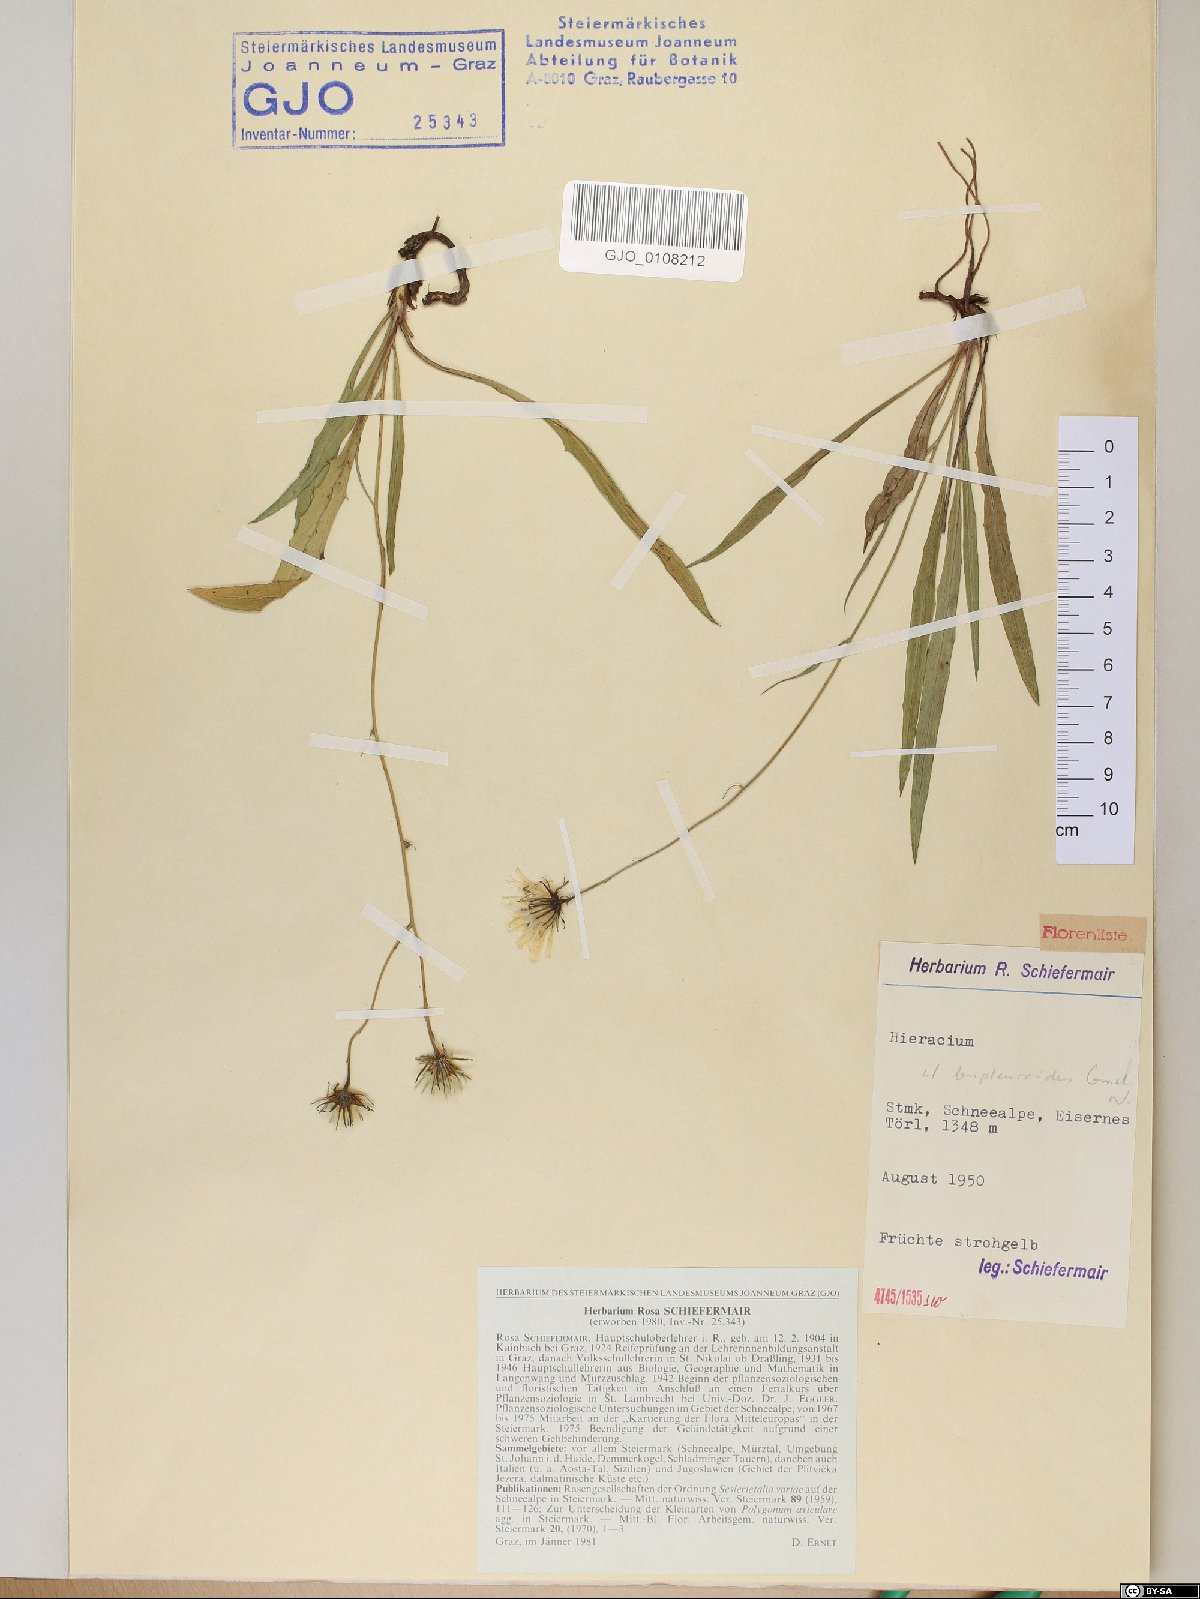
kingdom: Plantae
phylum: Tracheophyta
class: Magnoliopsida
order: Asterales
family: Asteraceae
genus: Hieracium
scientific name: Hieracium bupleuroides
